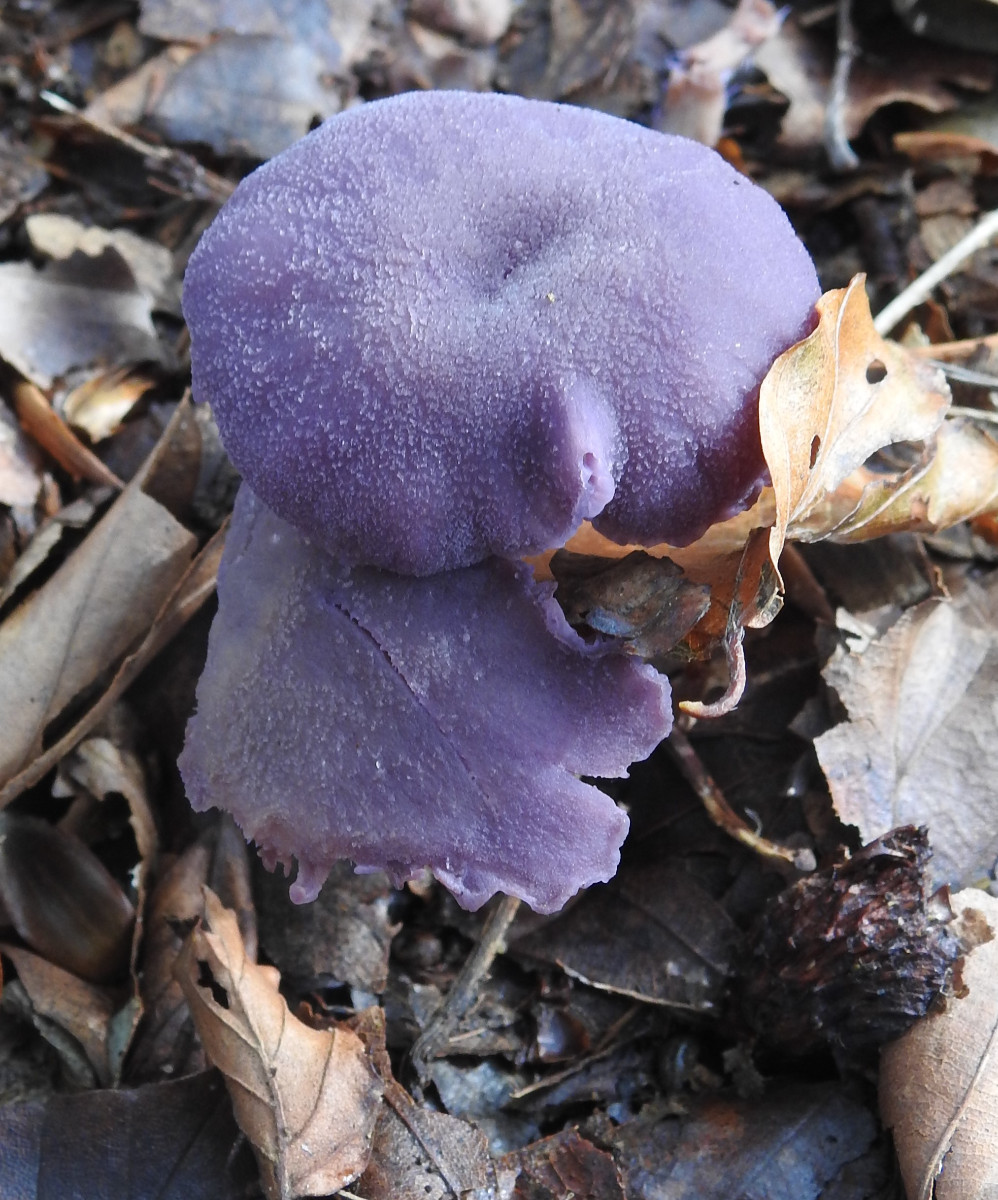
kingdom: Fungi
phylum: Basidiomycota
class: Agaricomycetes
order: Agaricales
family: Hydnangiaceae
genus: Laccaria
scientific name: Laccaria amethystina
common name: violet ametysthat
